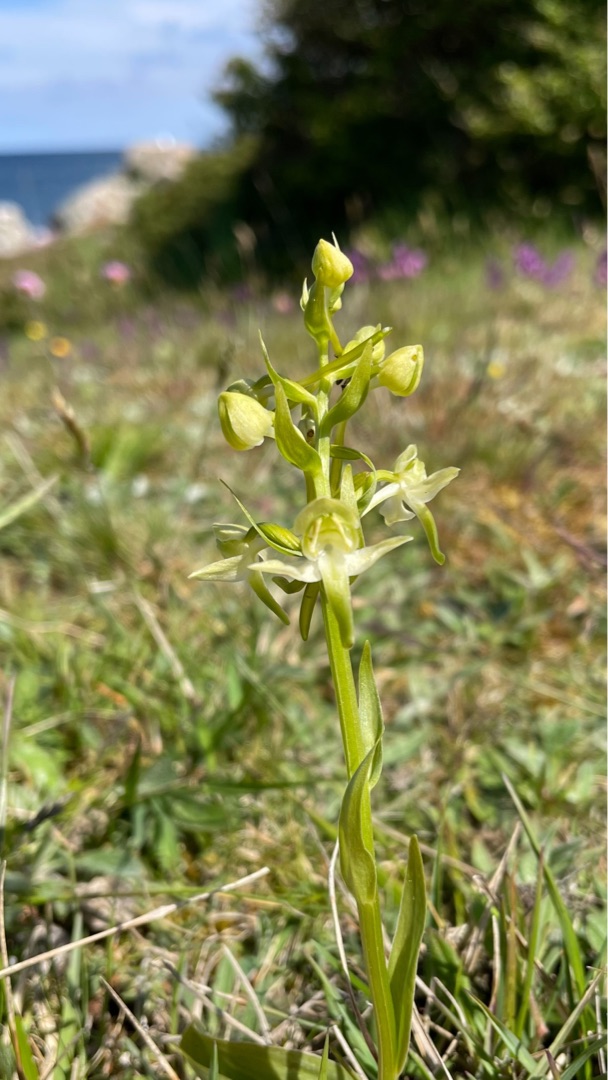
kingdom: Plantae
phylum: Tracheophyta
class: Liliopsida
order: Asparagales
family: Orchidaceae
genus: Platanthera
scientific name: Platanthera chlorantha
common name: Skov-gøgelilje
